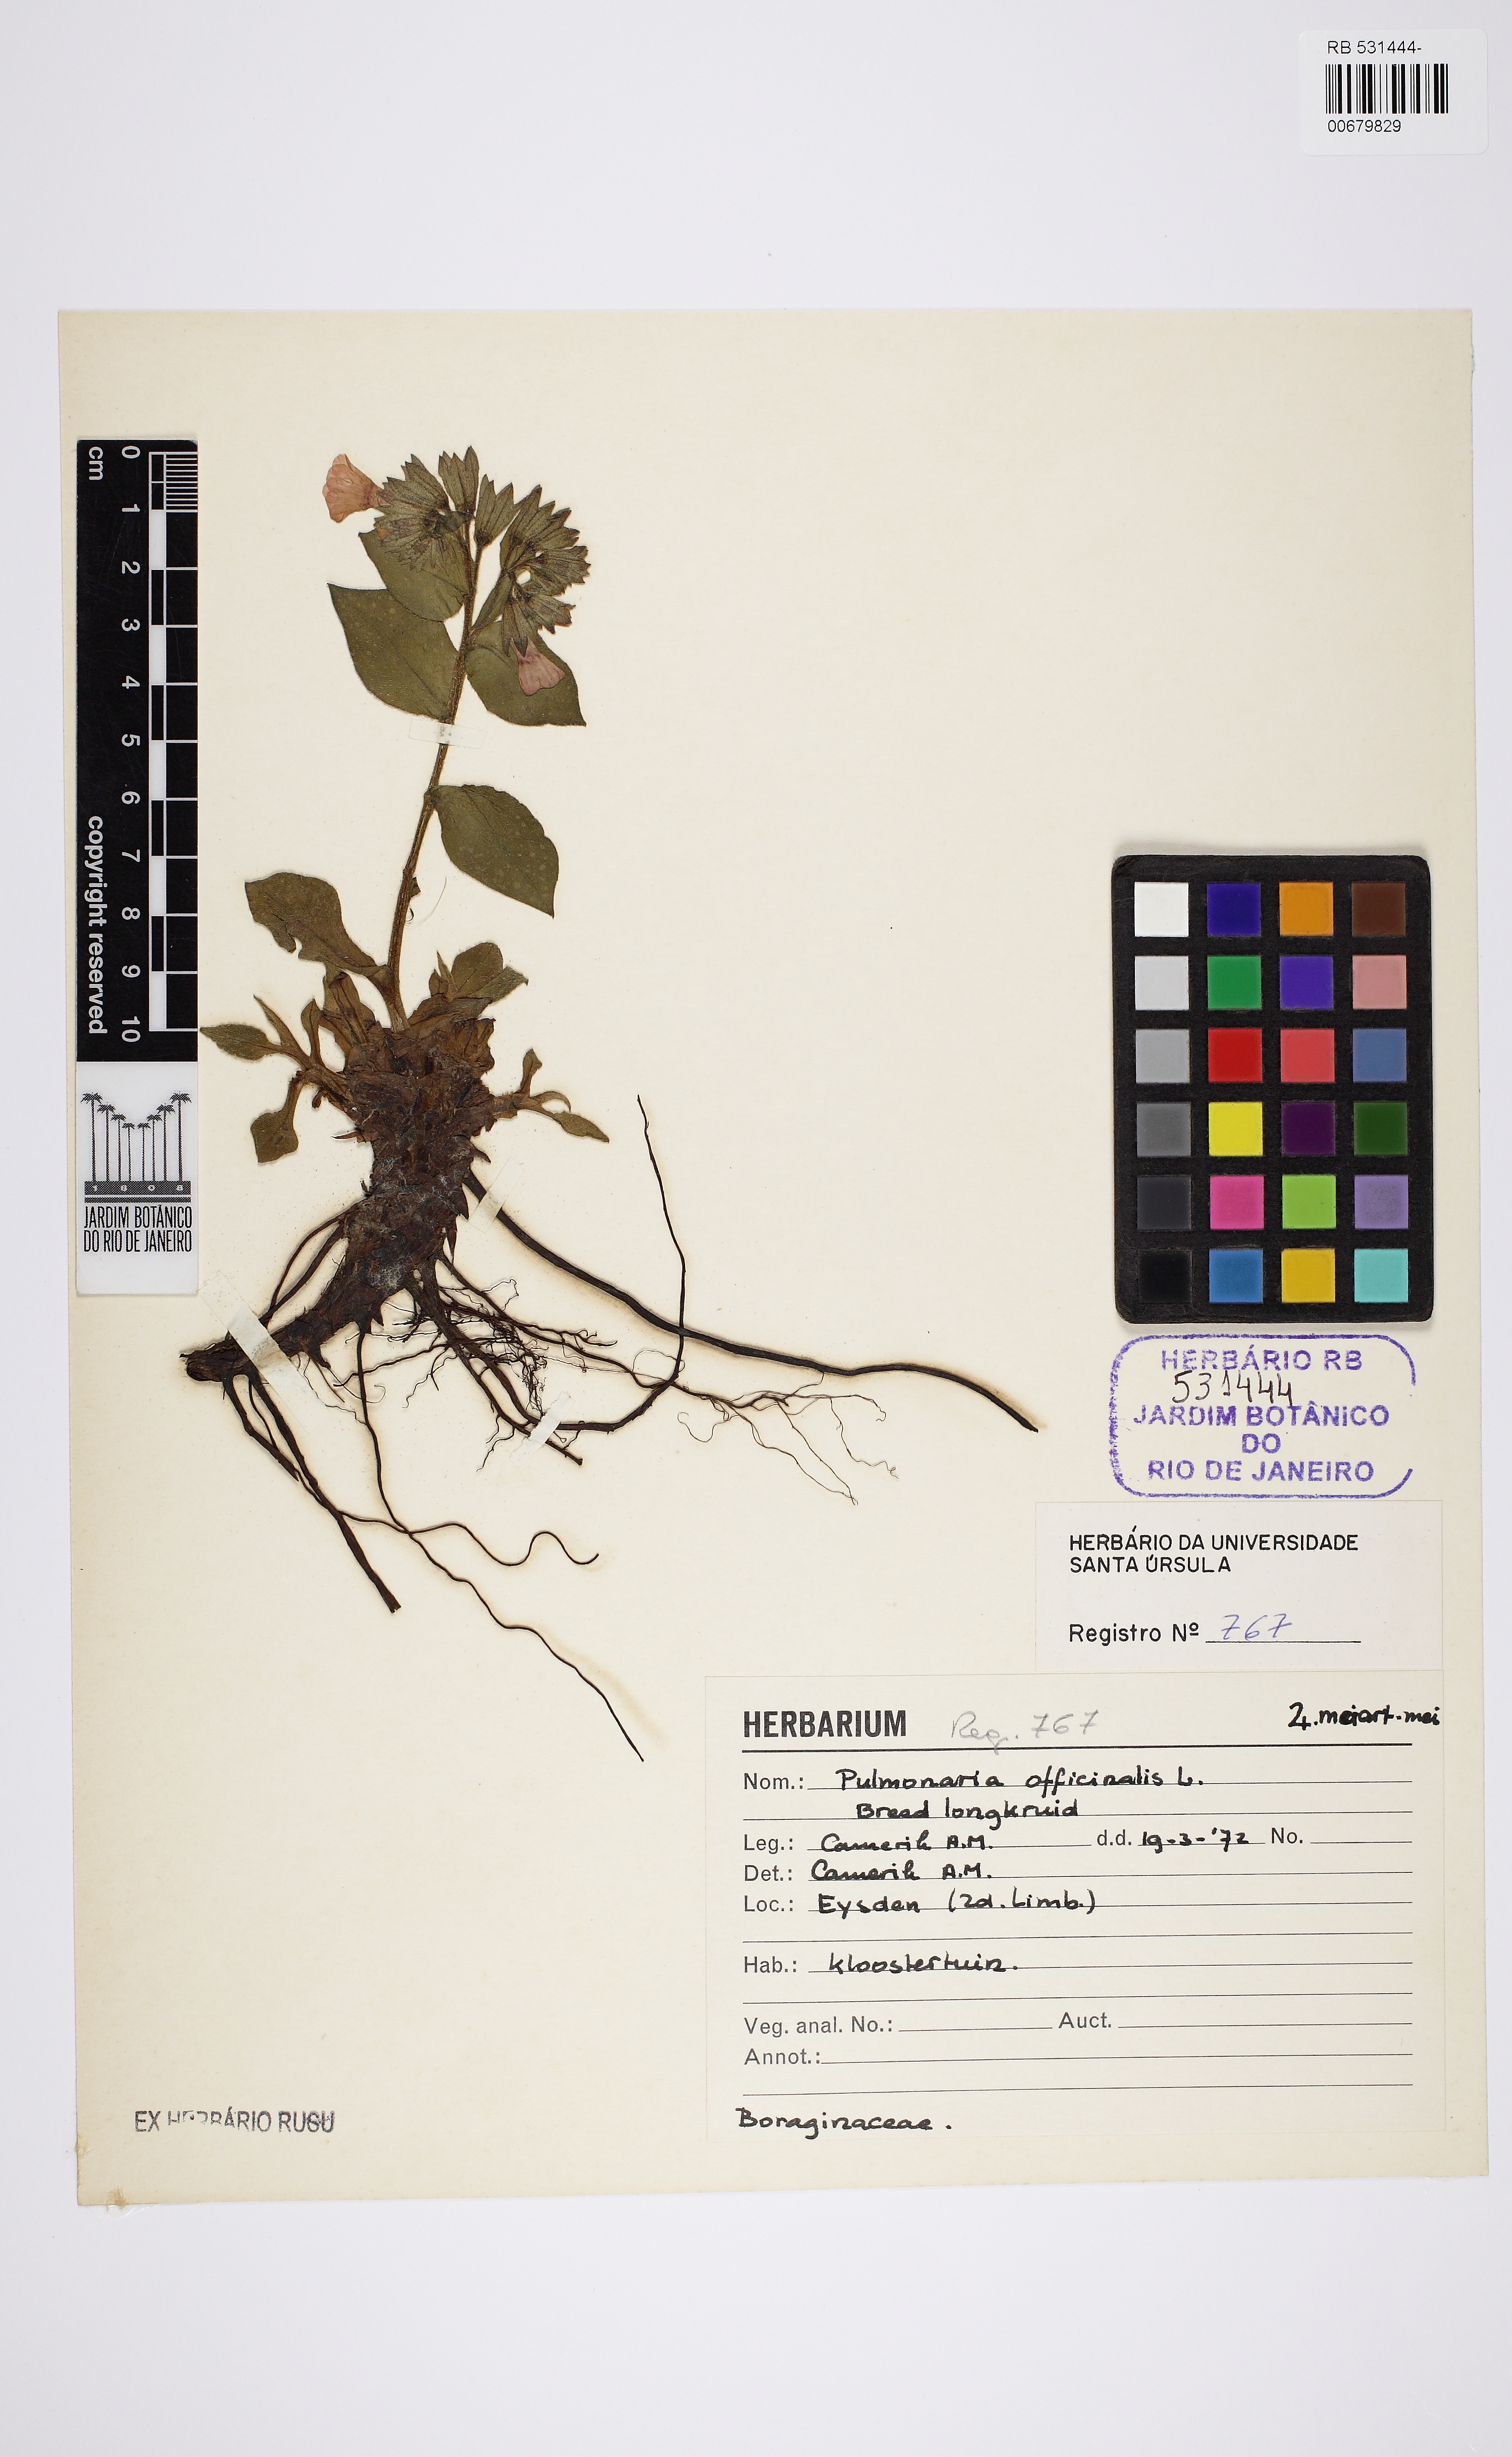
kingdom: Plantae
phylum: Tracheophyta
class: Magnoliopsida
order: Boraginales
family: Boraginaceae
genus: Pulmonaria
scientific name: Pulmonaria officinalis
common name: Lungwort
